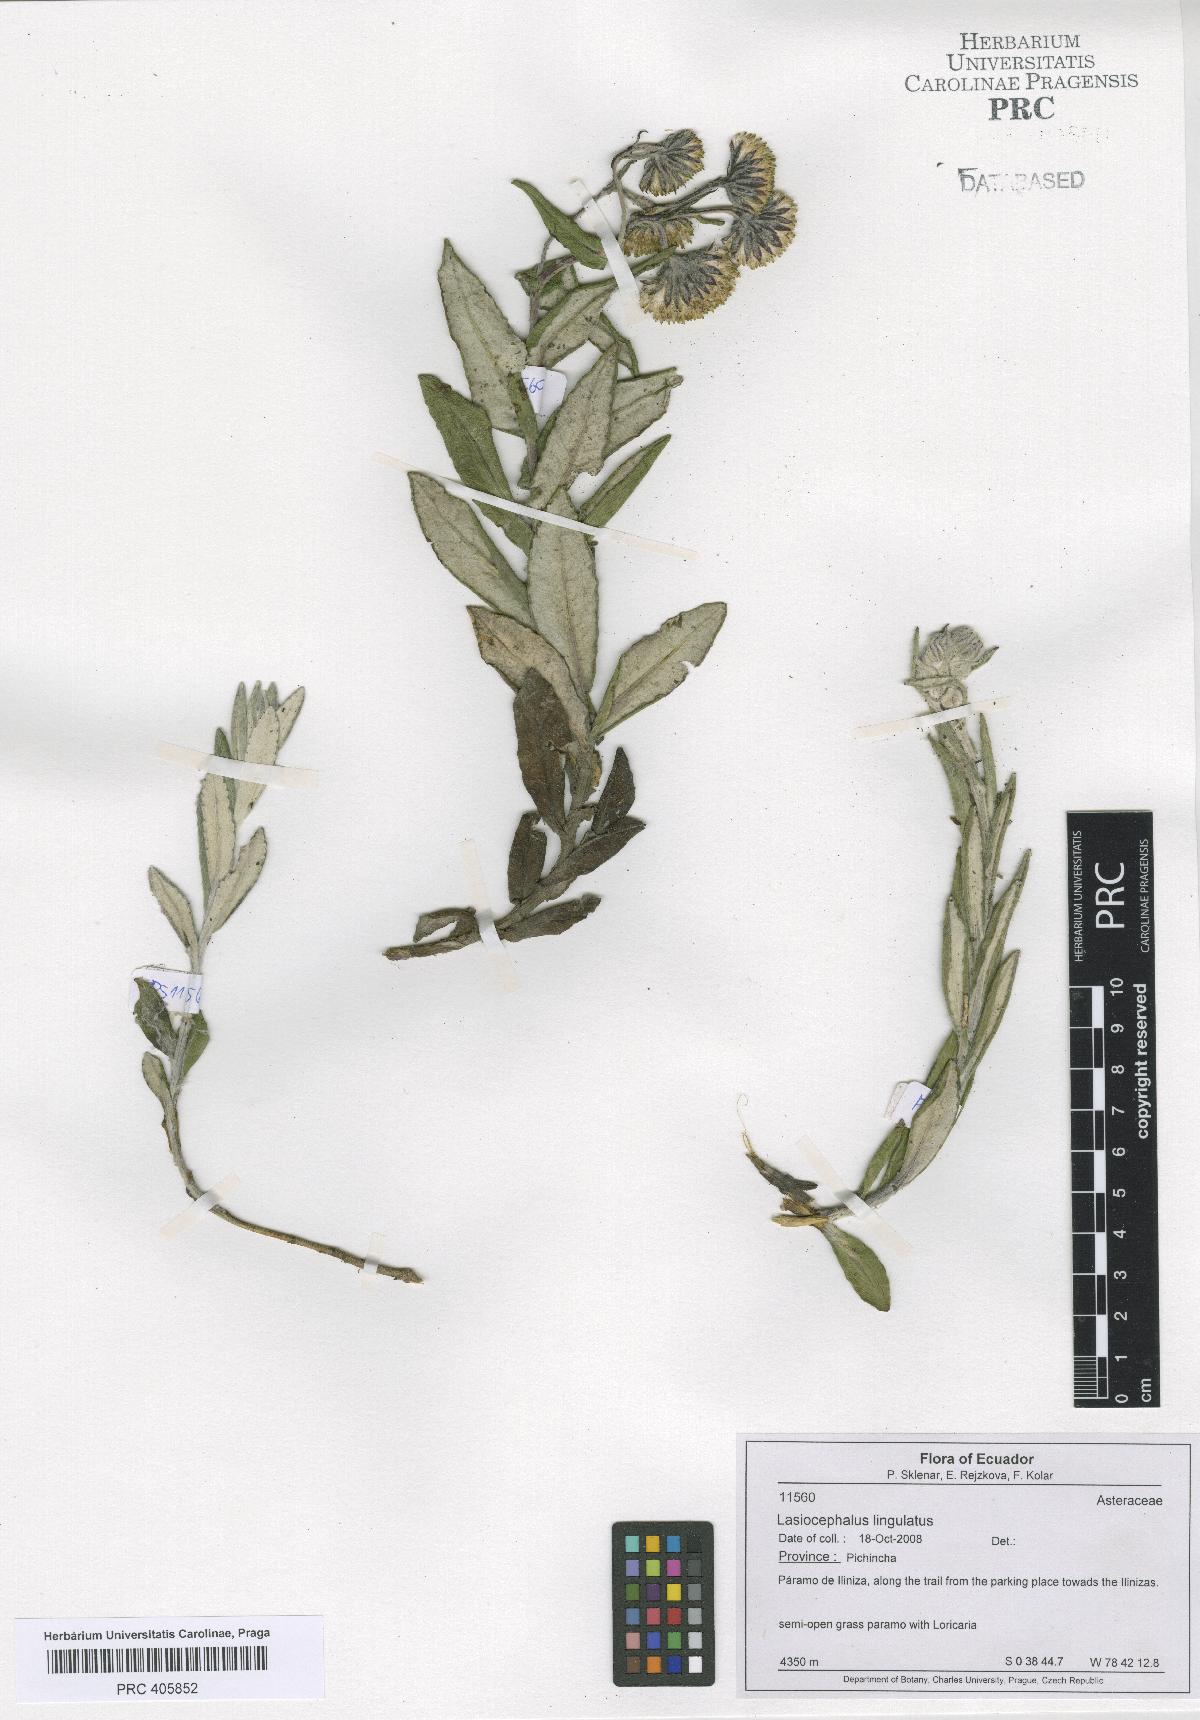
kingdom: Plantae
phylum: Tracheophyta
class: Magnoliopsida
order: Asterales
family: Asteraceae
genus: Lasiocephalus
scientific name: Lasiocephalus lingulatus
